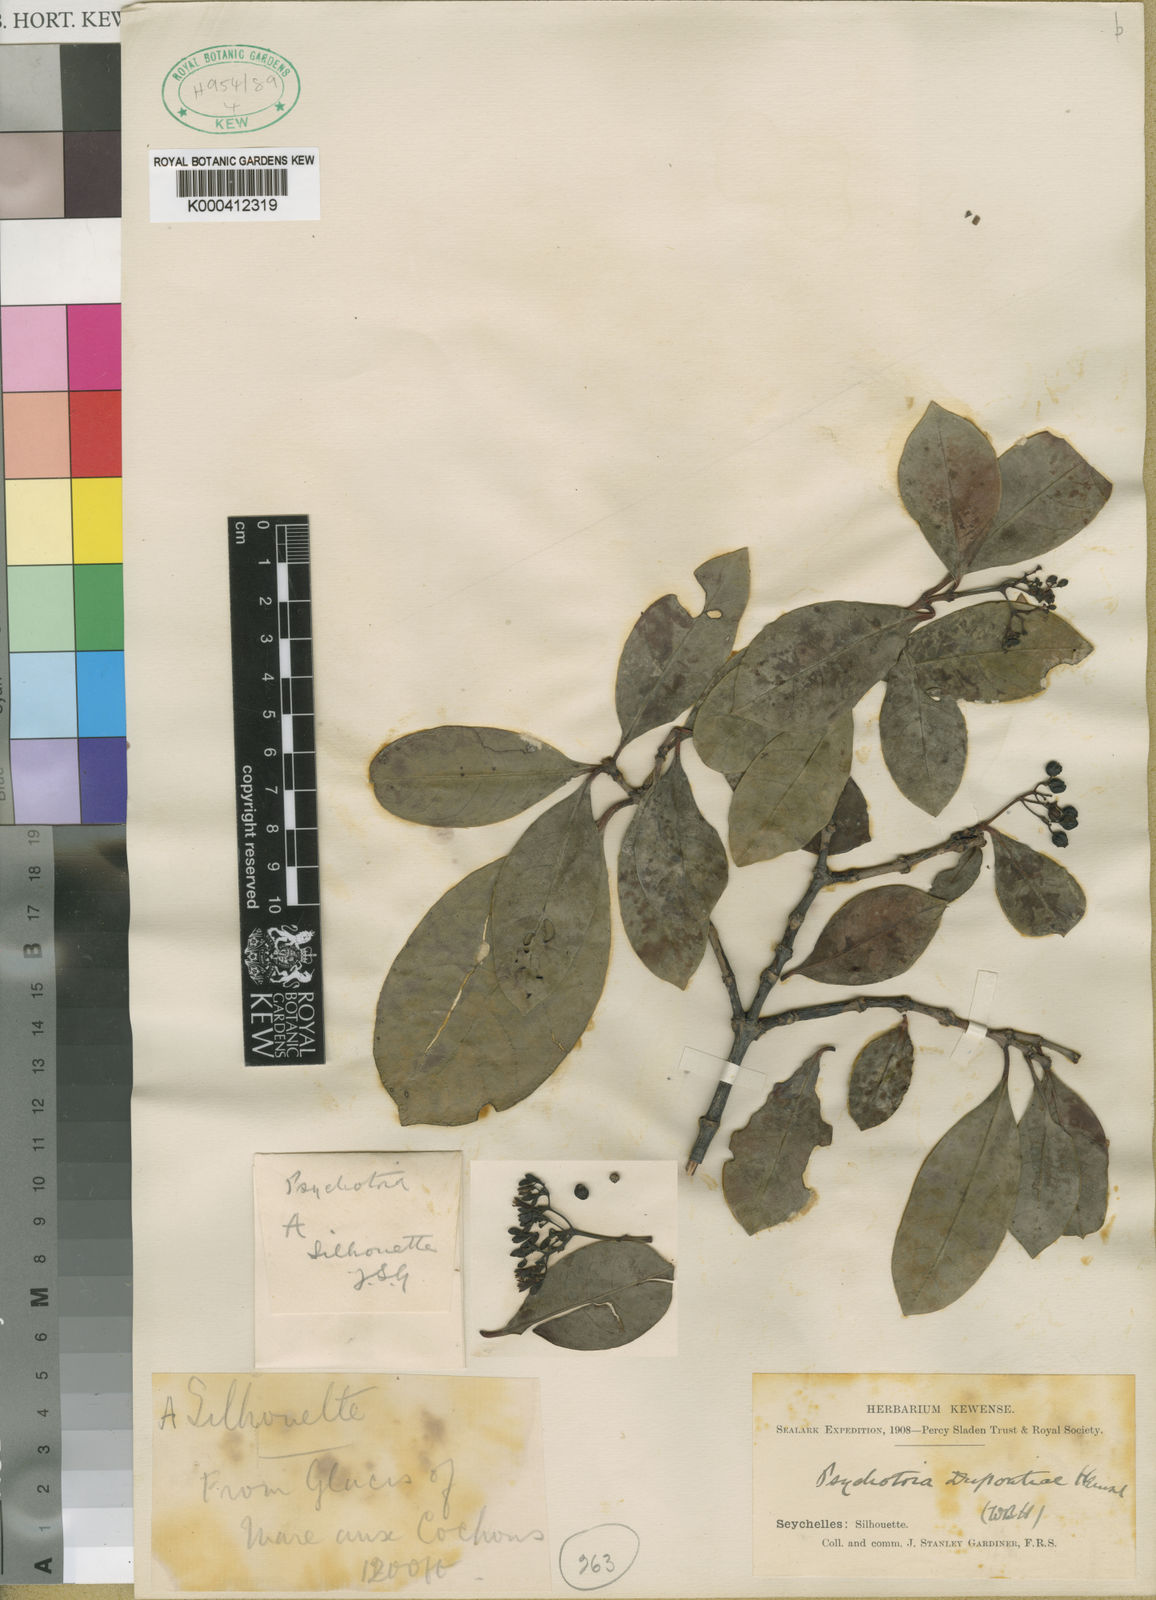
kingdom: Plantae
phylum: Tracheophyta
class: Magnoliopsida
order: Gentianales
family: Rubiaceae
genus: Psychotria
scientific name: Psychotria pervillei
